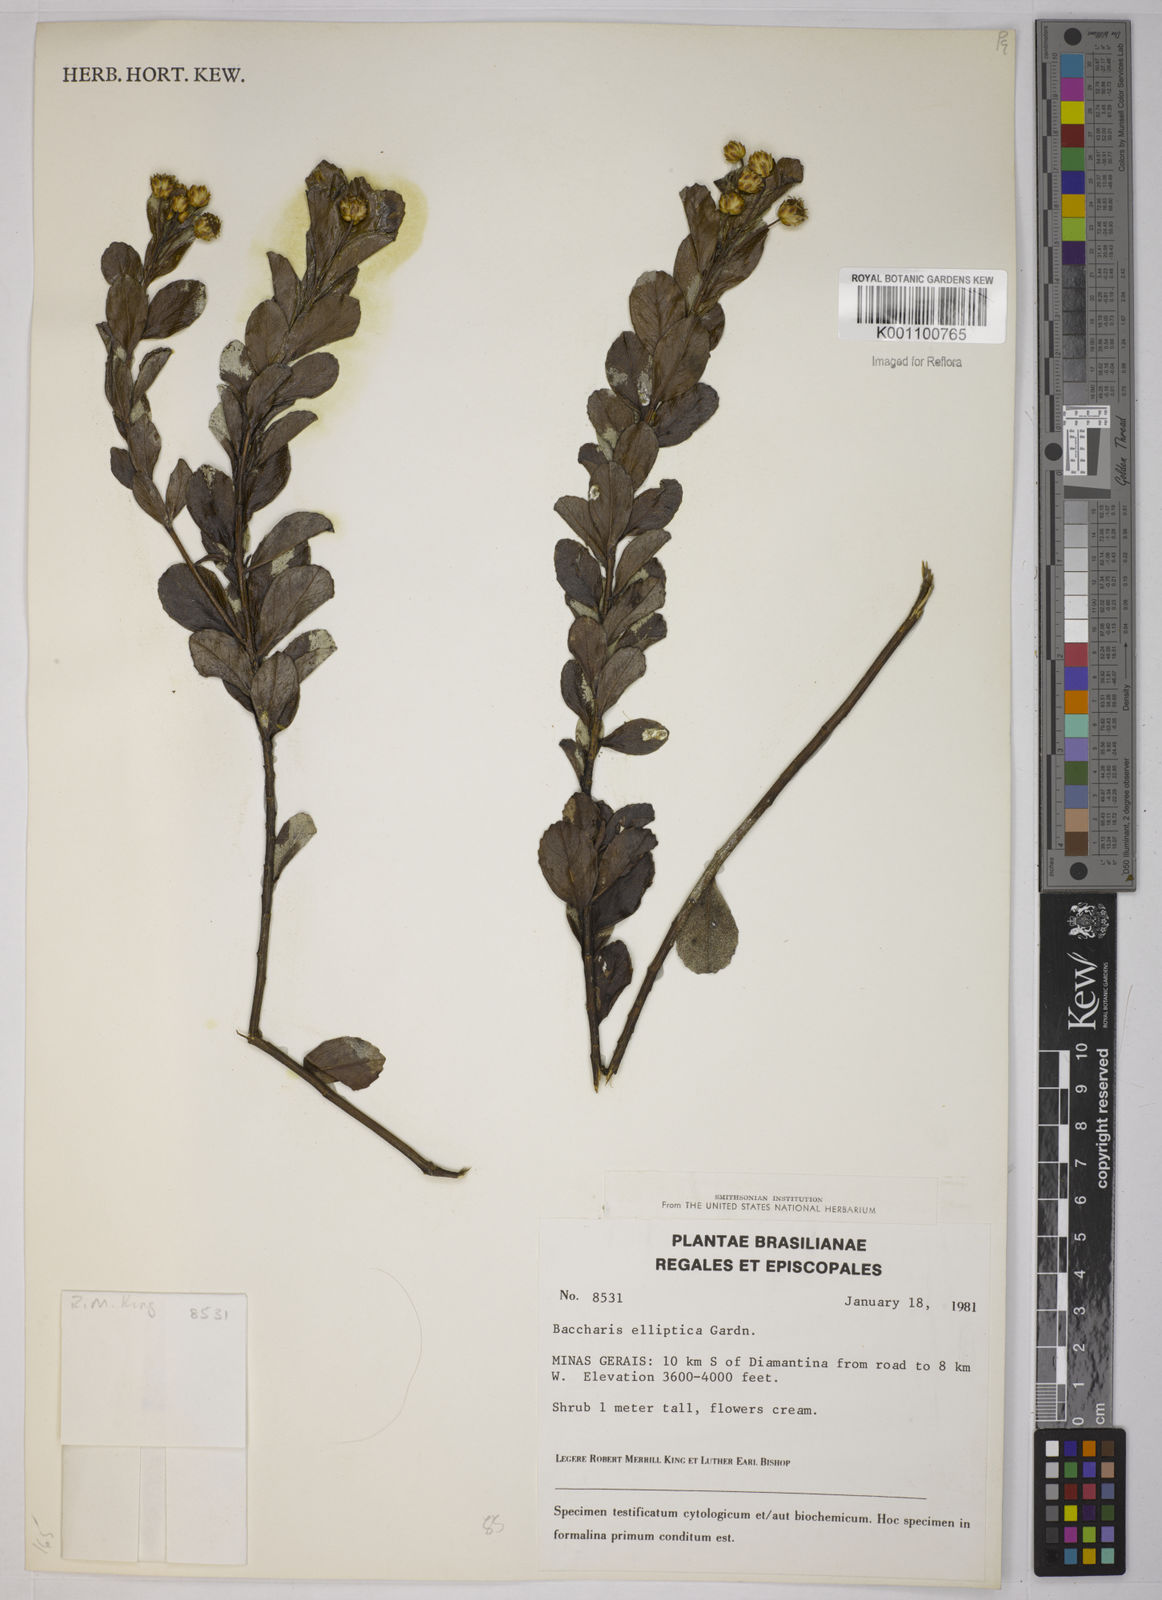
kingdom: Plantae
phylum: Tracheophyta
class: Magnoliopsida
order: Asterales
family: Asteraceae
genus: Baccharis
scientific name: Baccharis elliptica
